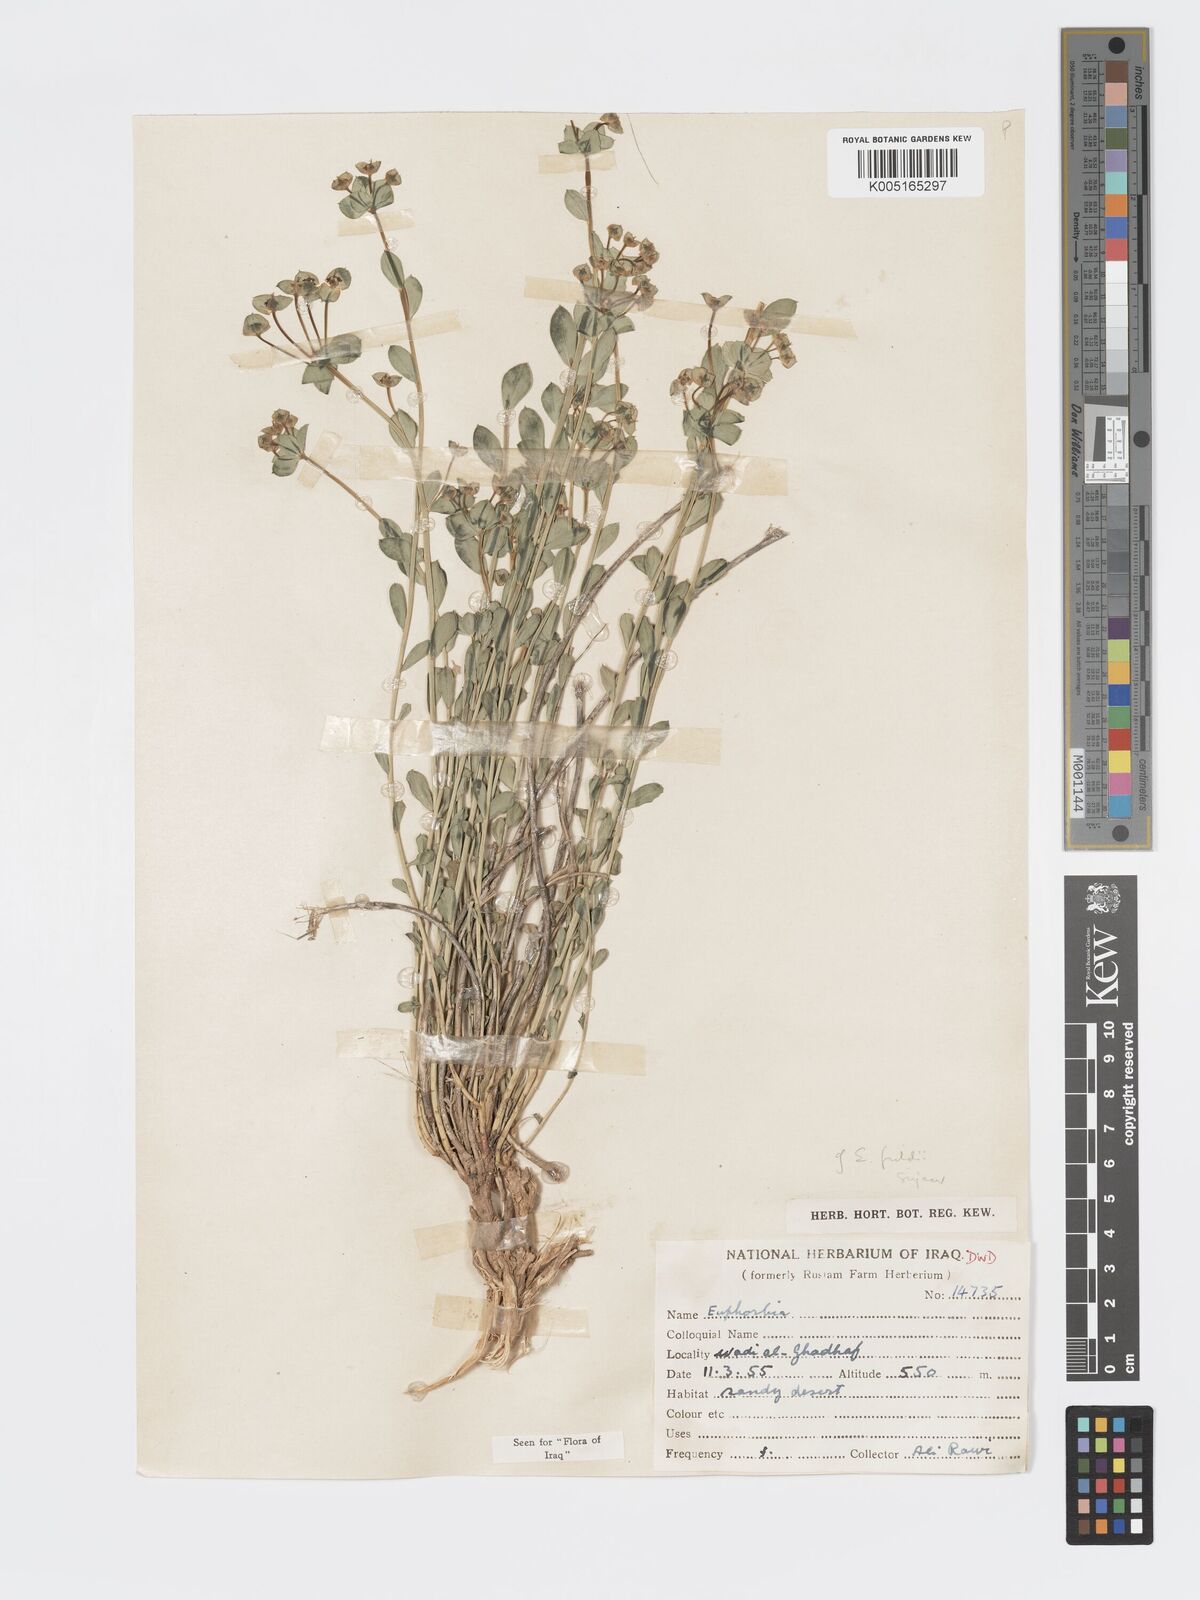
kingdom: Plantae
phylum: Tracheophyta
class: Magnoliopsida
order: Malpighiales
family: Euphorbiaceae
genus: Euphorbia
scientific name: Euphorbia
